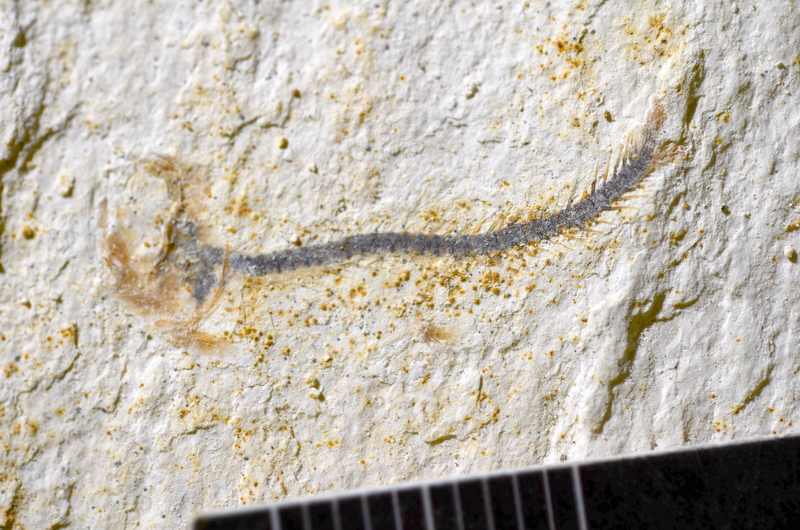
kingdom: Animalia
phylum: Chordata
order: Salmoniformes
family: Orthogonikleithridae
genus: Orthogonikleithrus
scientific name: Orthogonikleithrus hoelli
